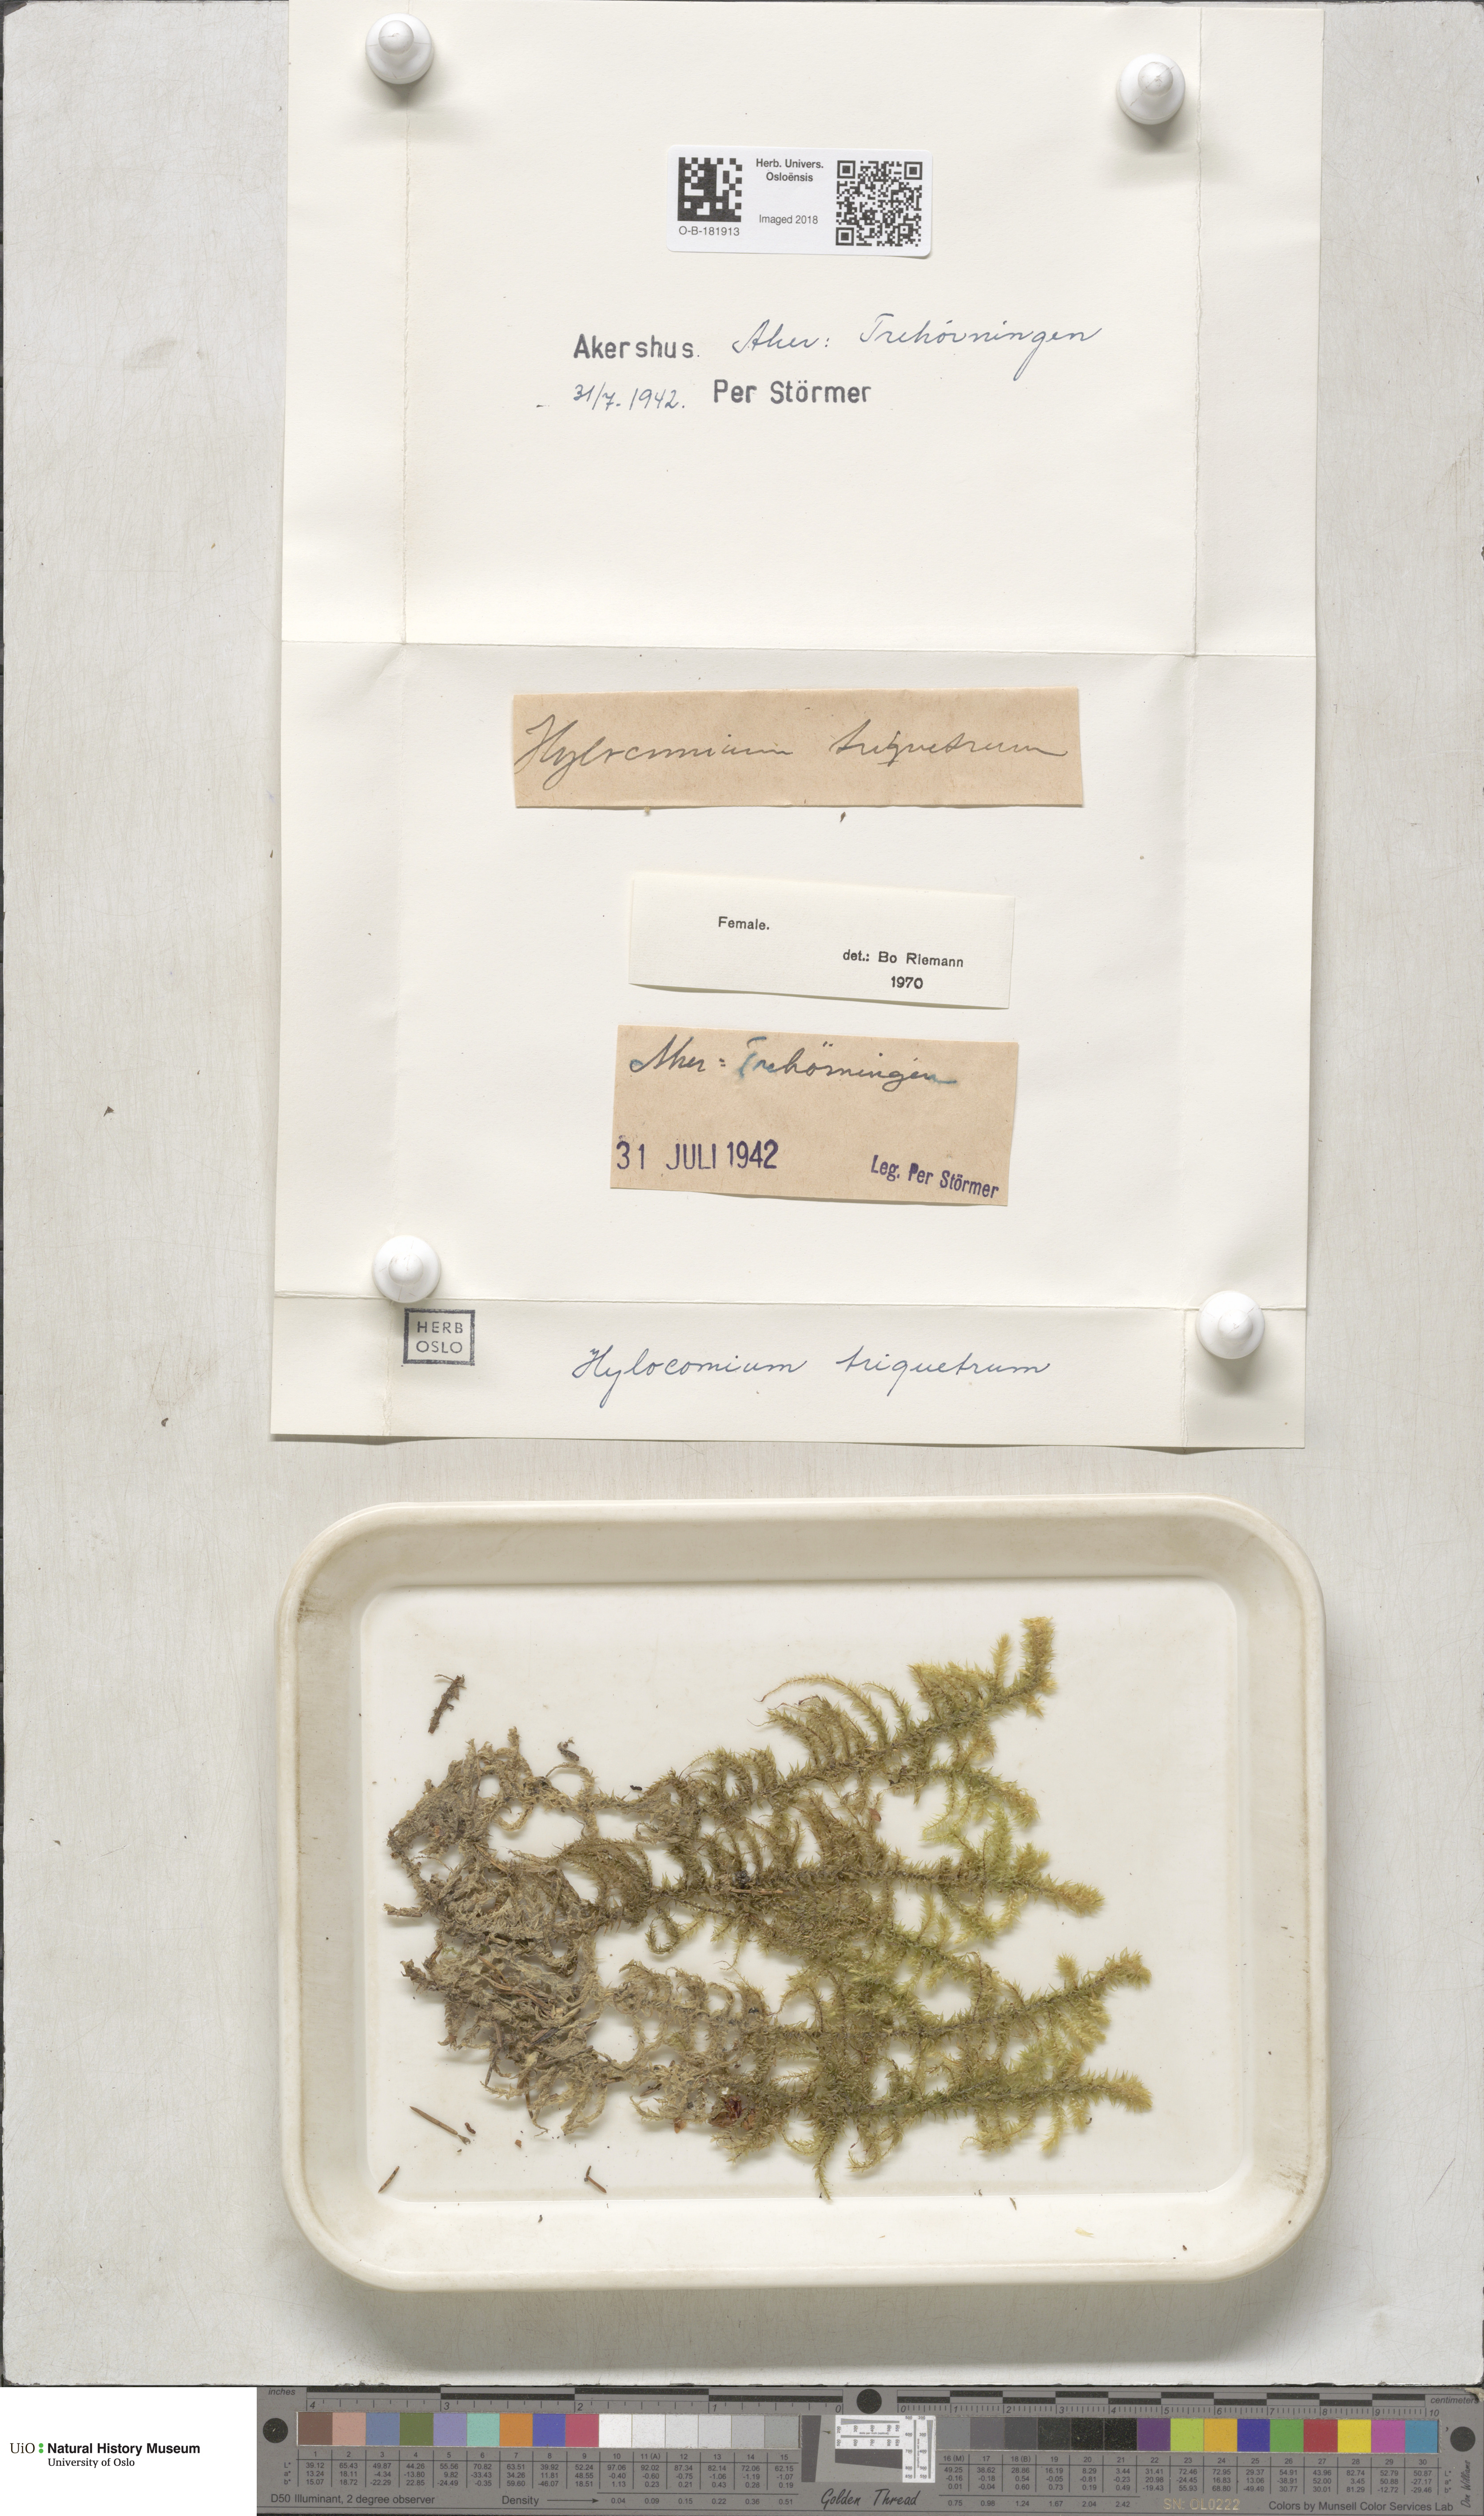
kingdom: Plantae
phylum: Bryophyta
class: Bryopsida
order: Hypnales
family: Hylocomiaceae
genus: Hylocomiadelphus
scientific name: Hylocomiadelphus triquetrus
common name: Rough goose neck moss
